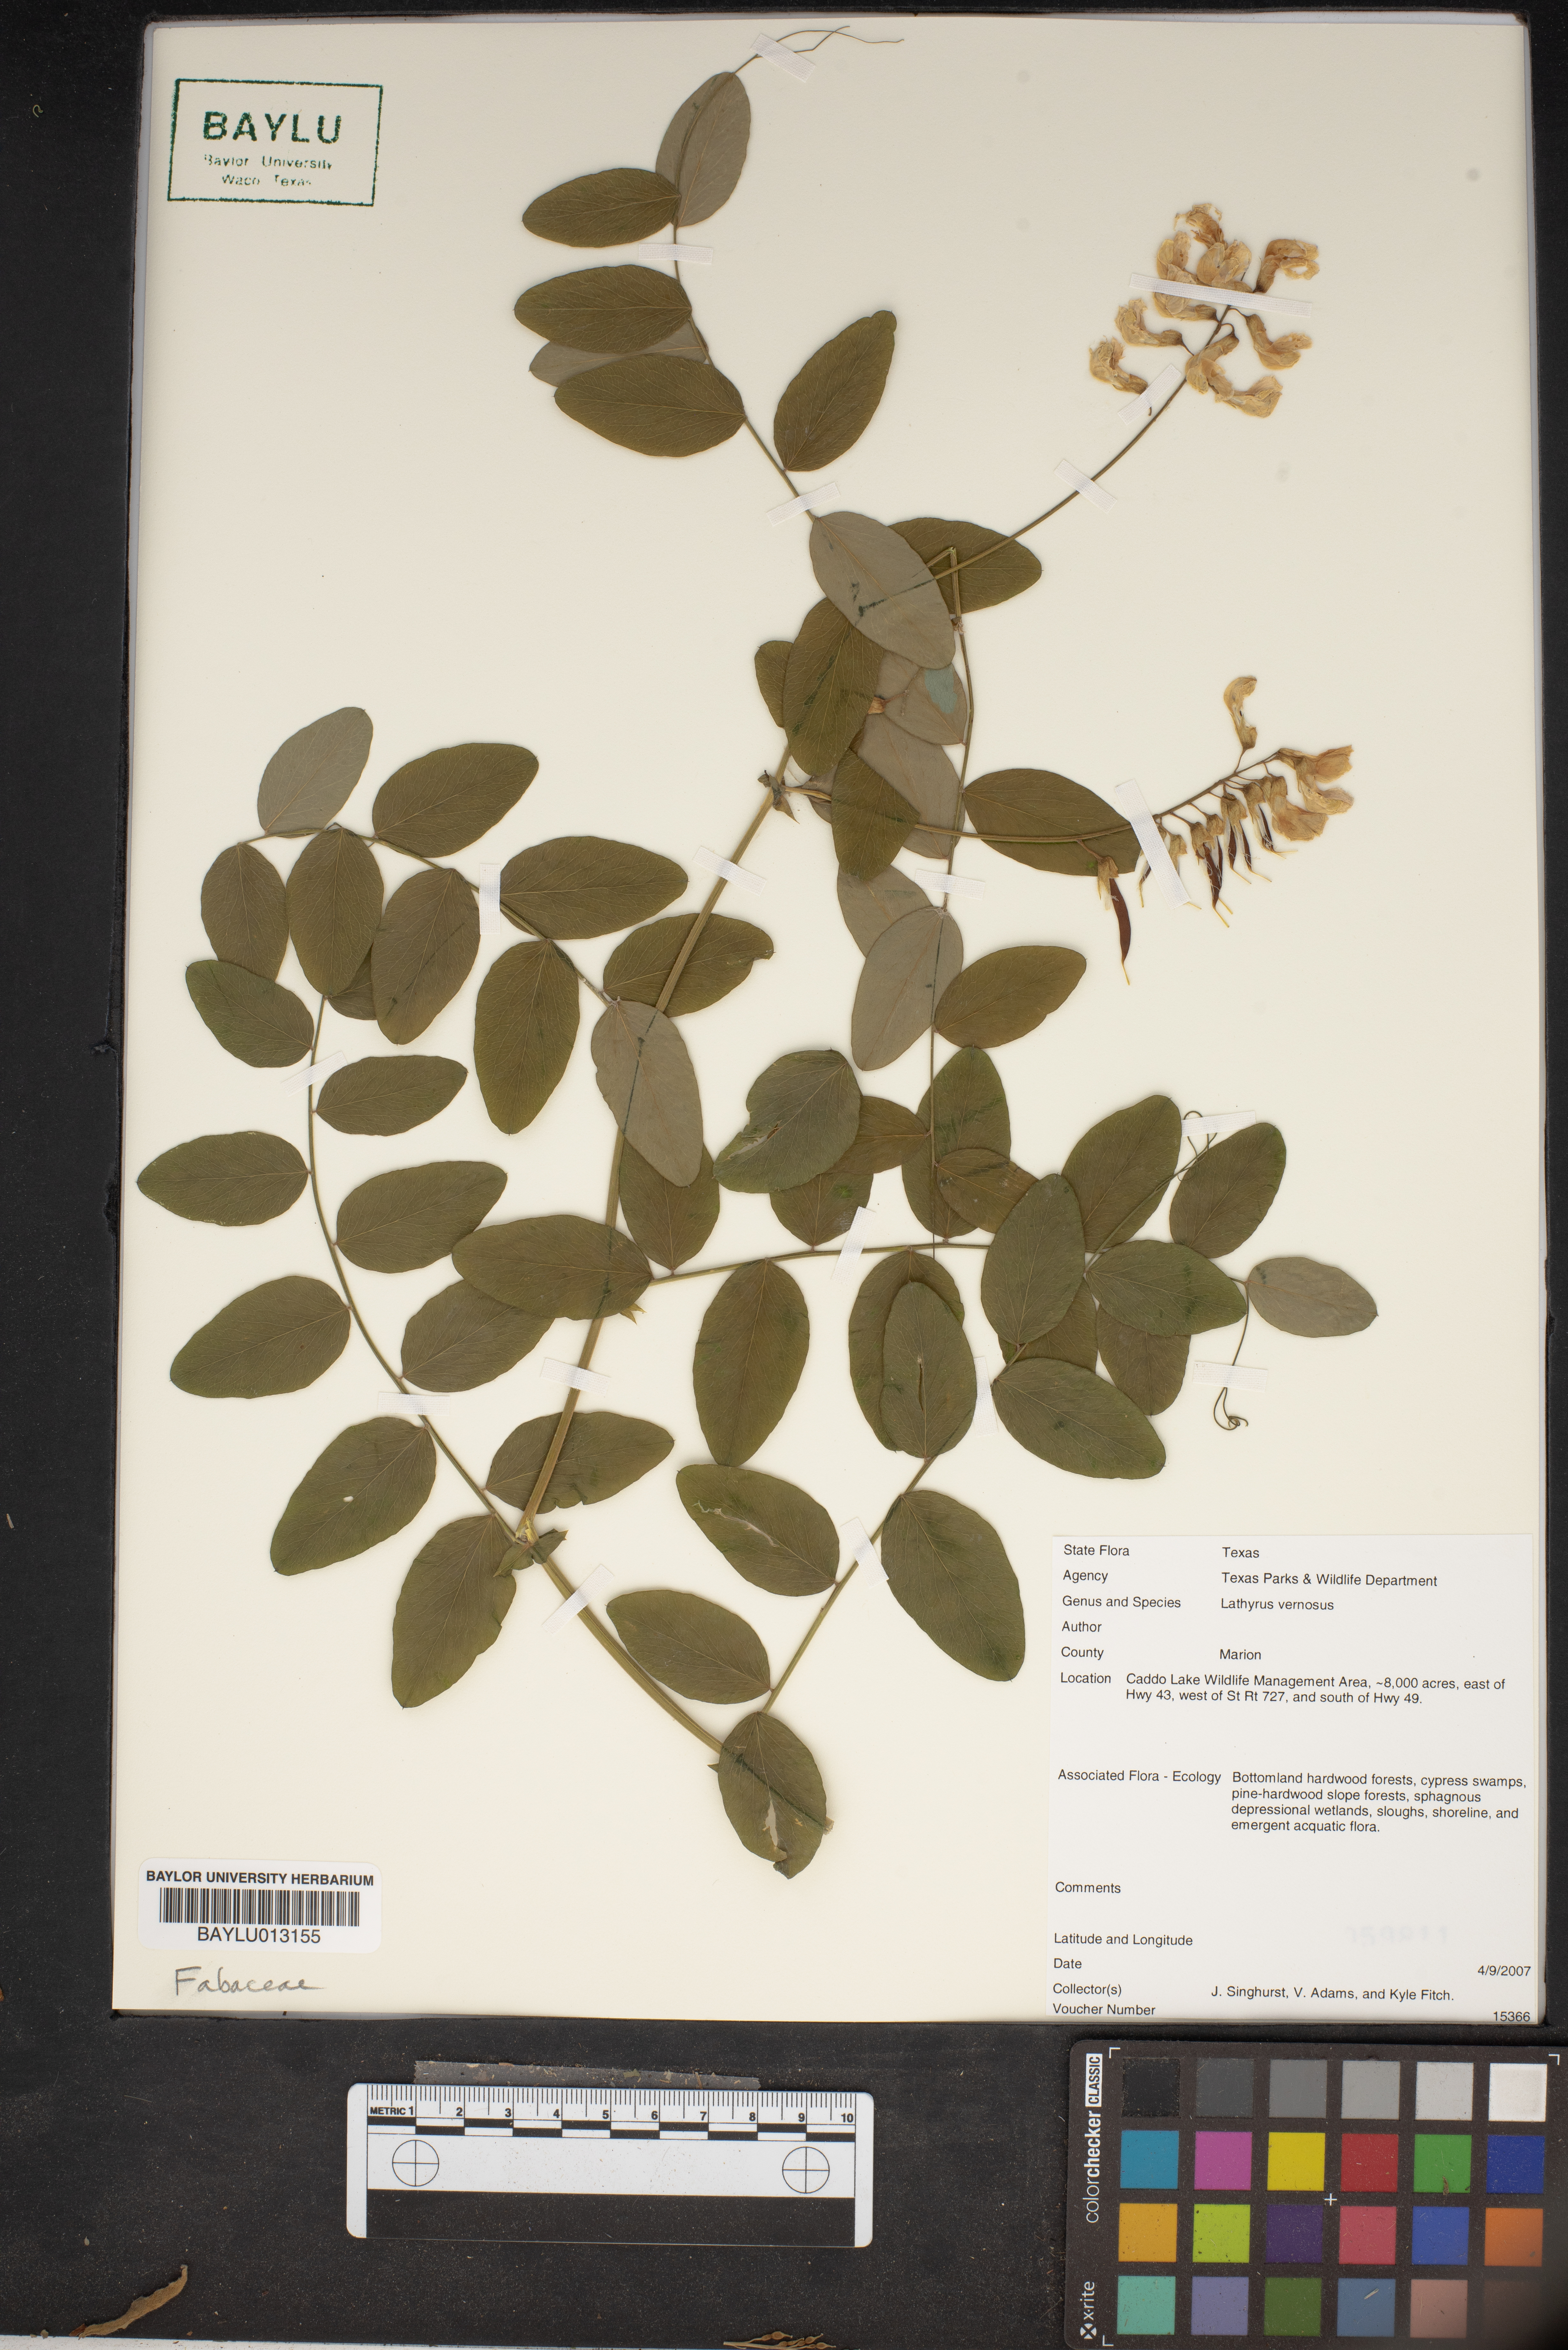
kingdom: Plantae
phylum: Tracheophyta
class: Magnoliopsida
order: Fabales
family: Fabaceae
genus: Lathyrus
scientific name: Lathyrus vernus
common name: Spring pea
